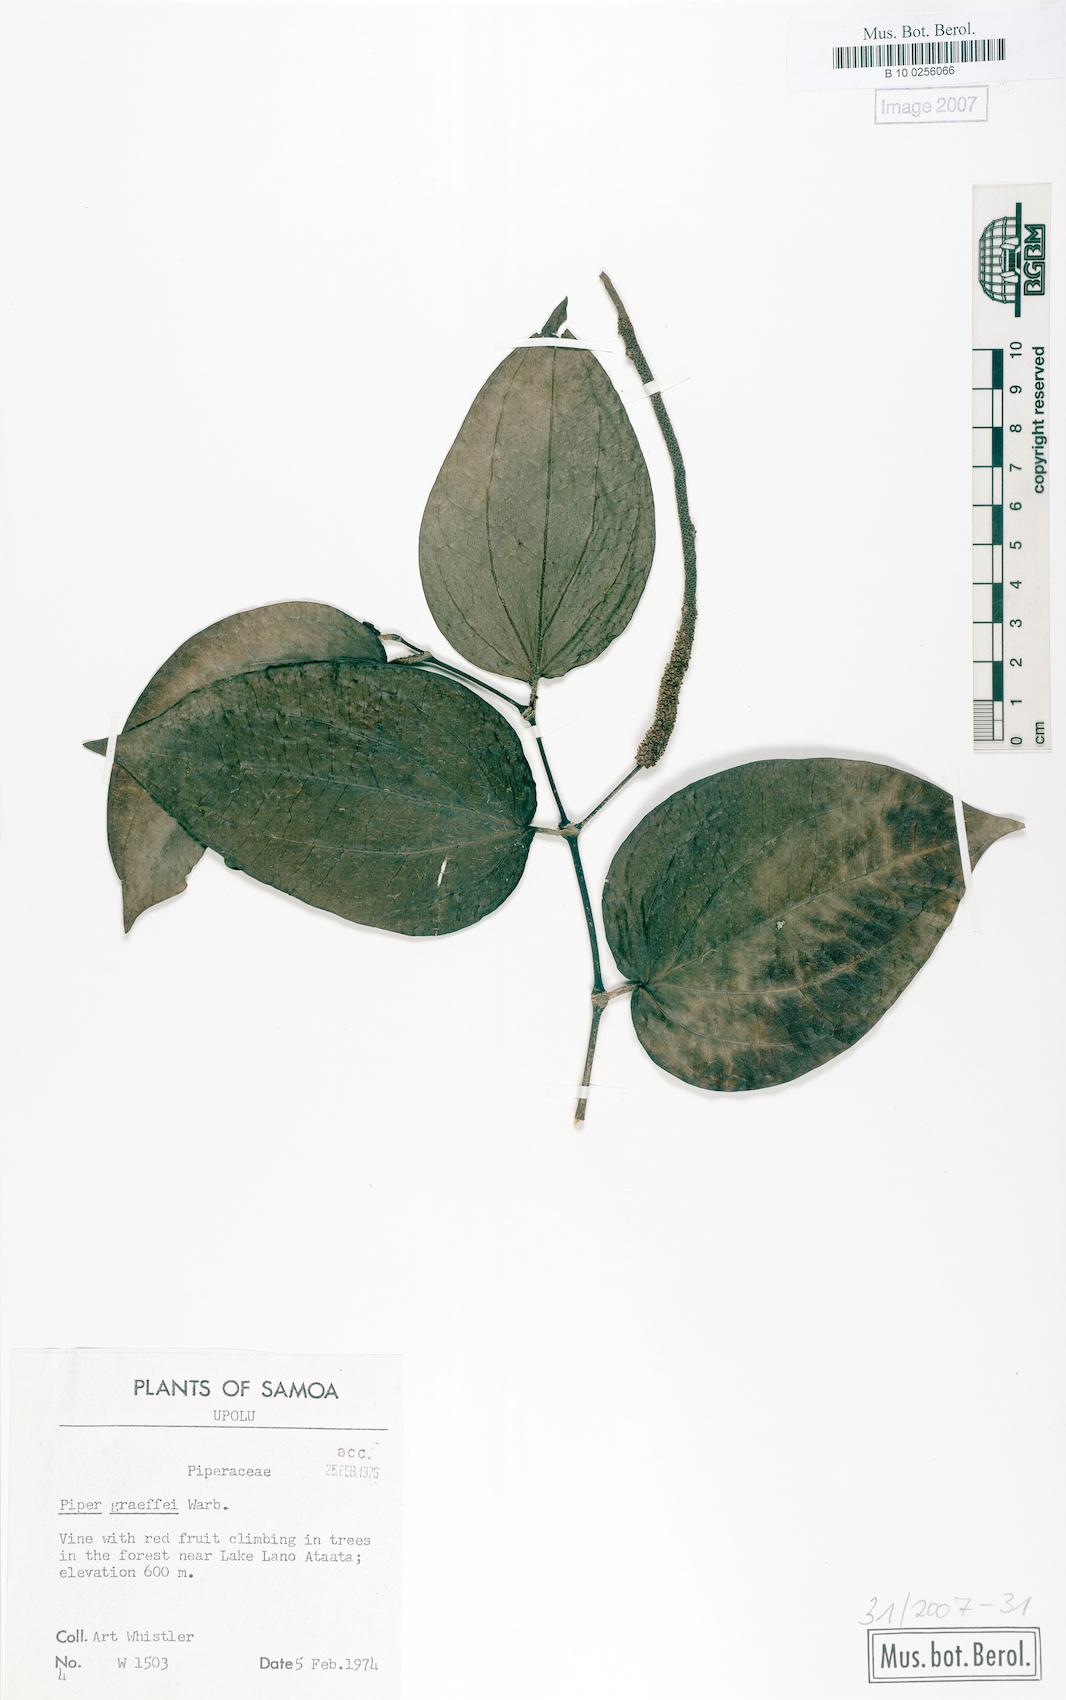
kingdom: Plantae
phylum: Tracheophyta
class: Magnoliopsida
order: Piperales
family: Piperaceae
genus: Piper
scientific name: Piper graeffei
